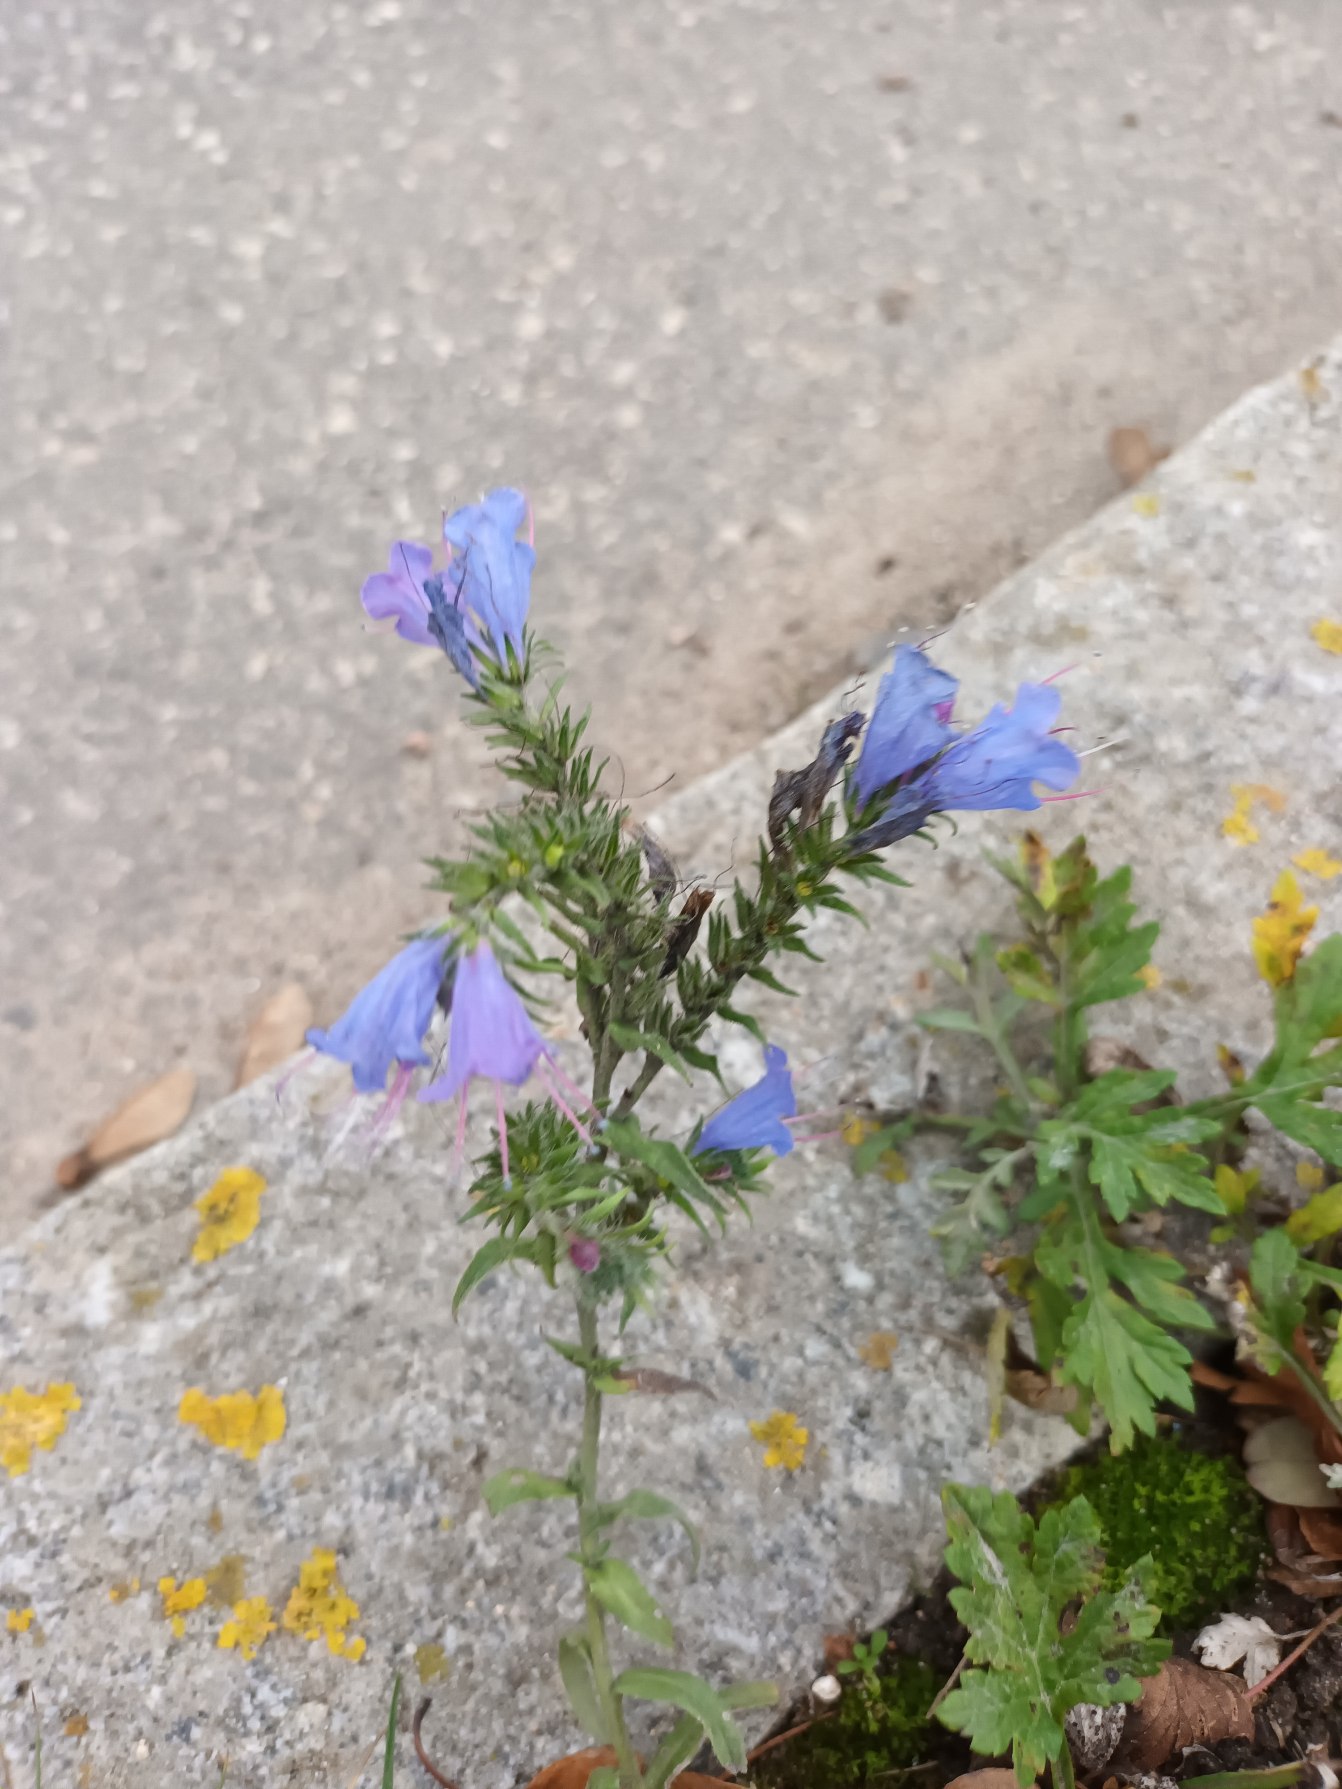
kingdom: Plantae
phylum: Tracheophyta
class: Magnoliopsida
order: Boraginales
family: Boraginaceae
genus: Echium
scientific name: Echium vulgare
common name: Slangehoved
